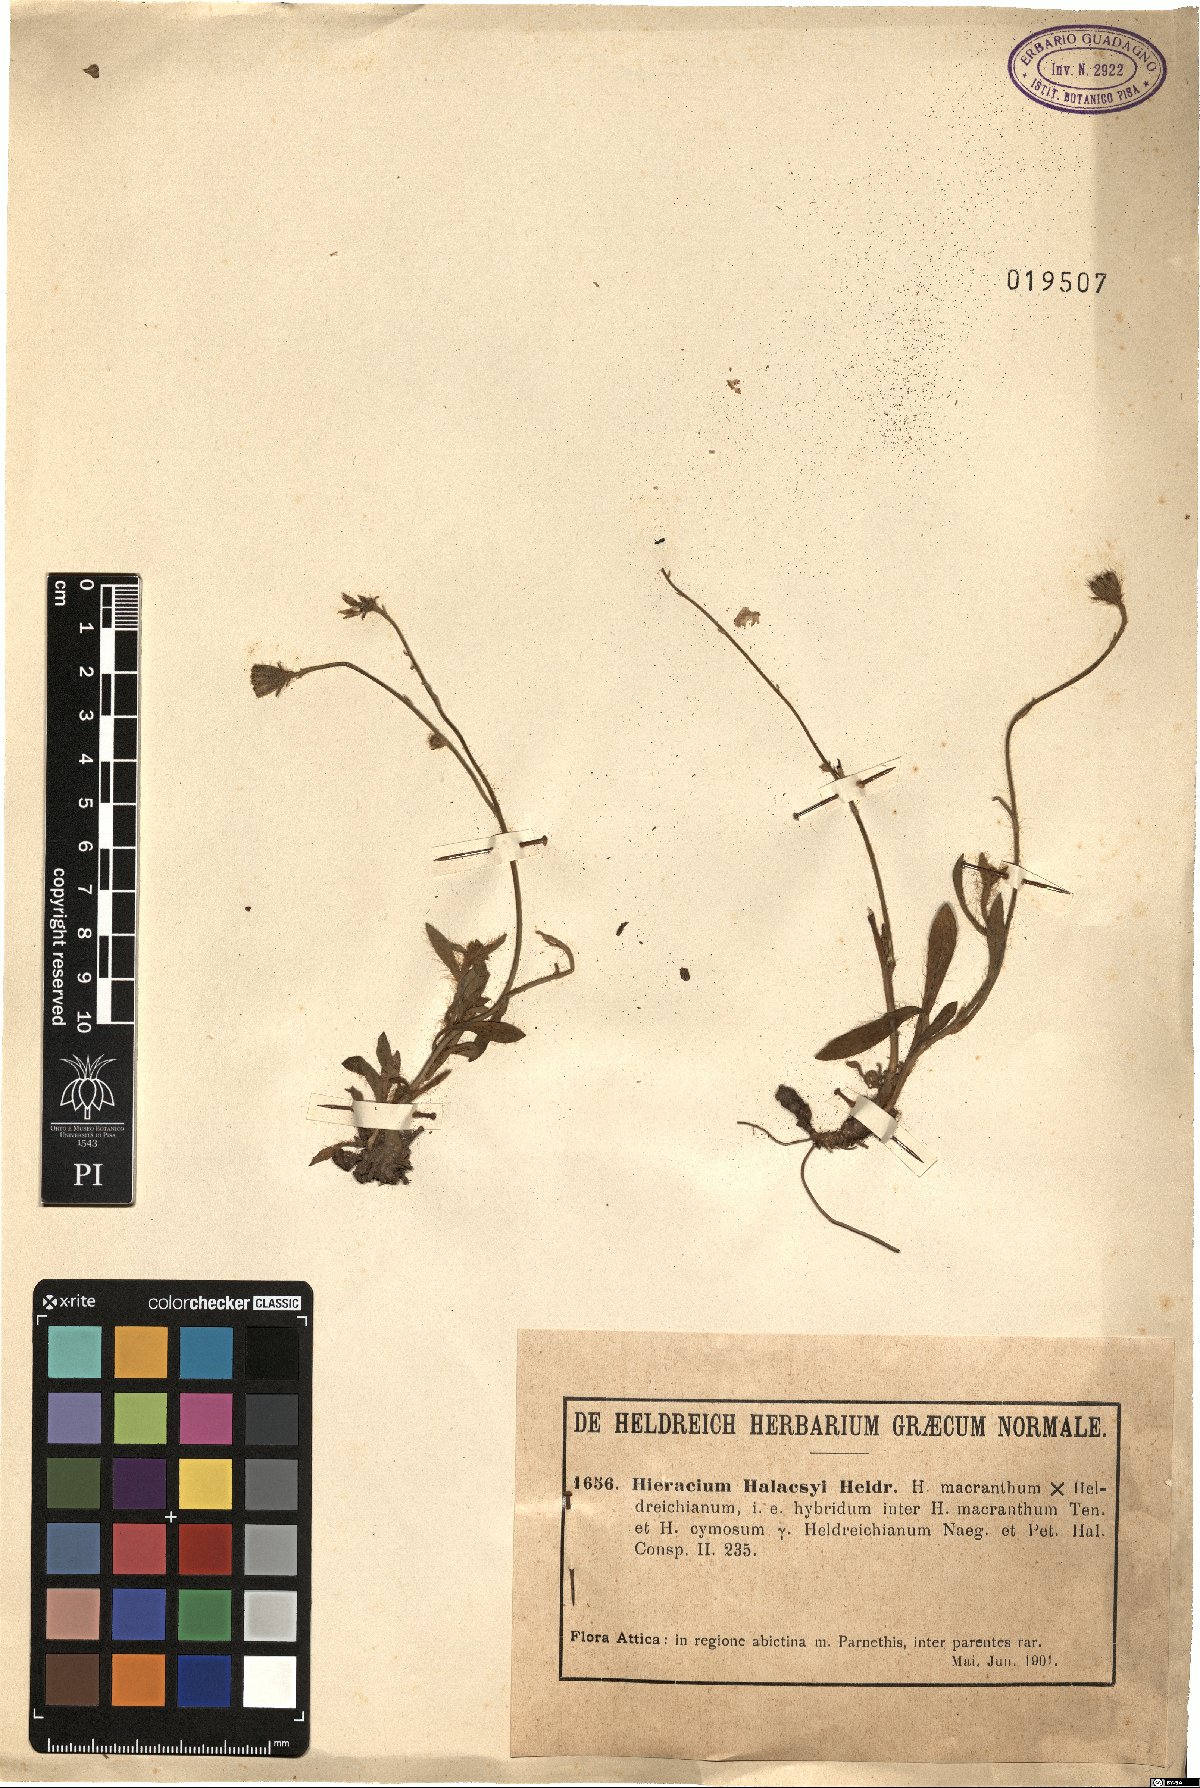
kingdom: Plantae
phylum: Tracheophyta
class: Magnoliopsida
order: Asterales
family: Asteraceae
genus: Pilosella
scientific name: Pilosella halacsyi
